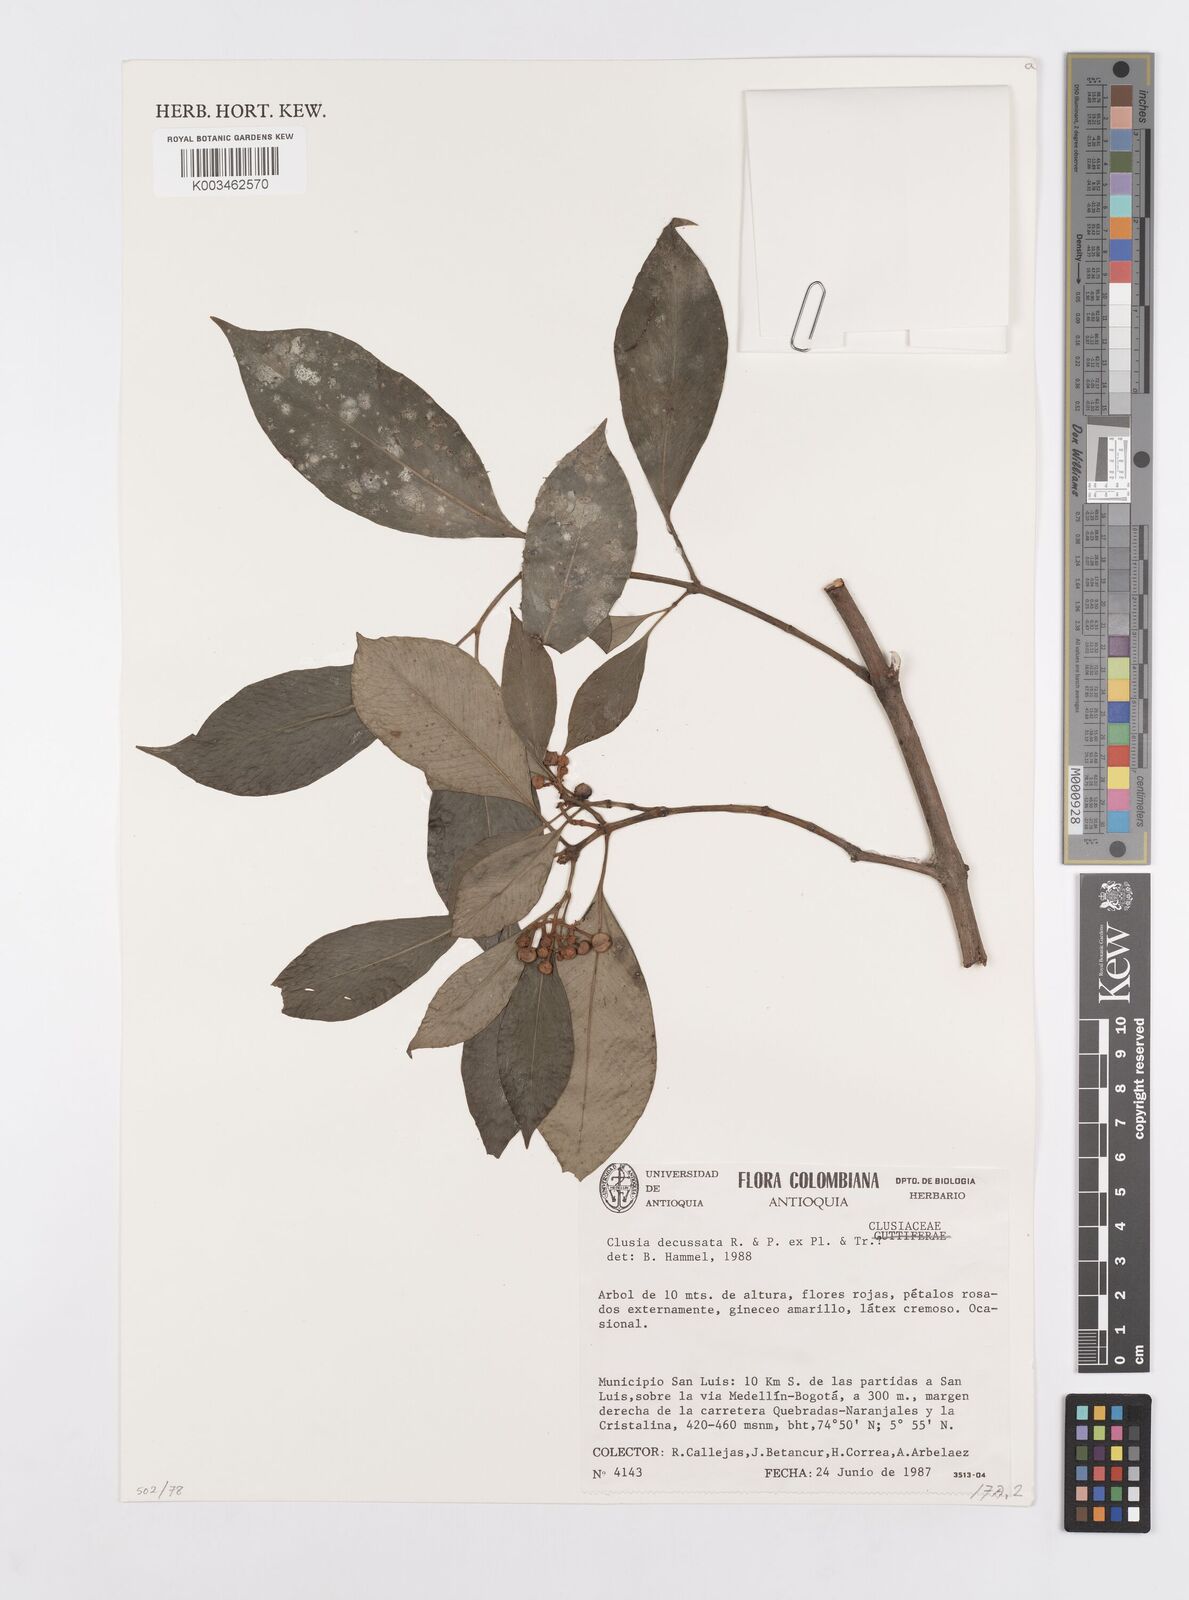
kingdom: Plantae
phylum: Tracheophyta
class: Magnoliopsida
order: Malpighiales
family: Clusiaceae
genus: Clusia
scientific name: Clusia decussata
